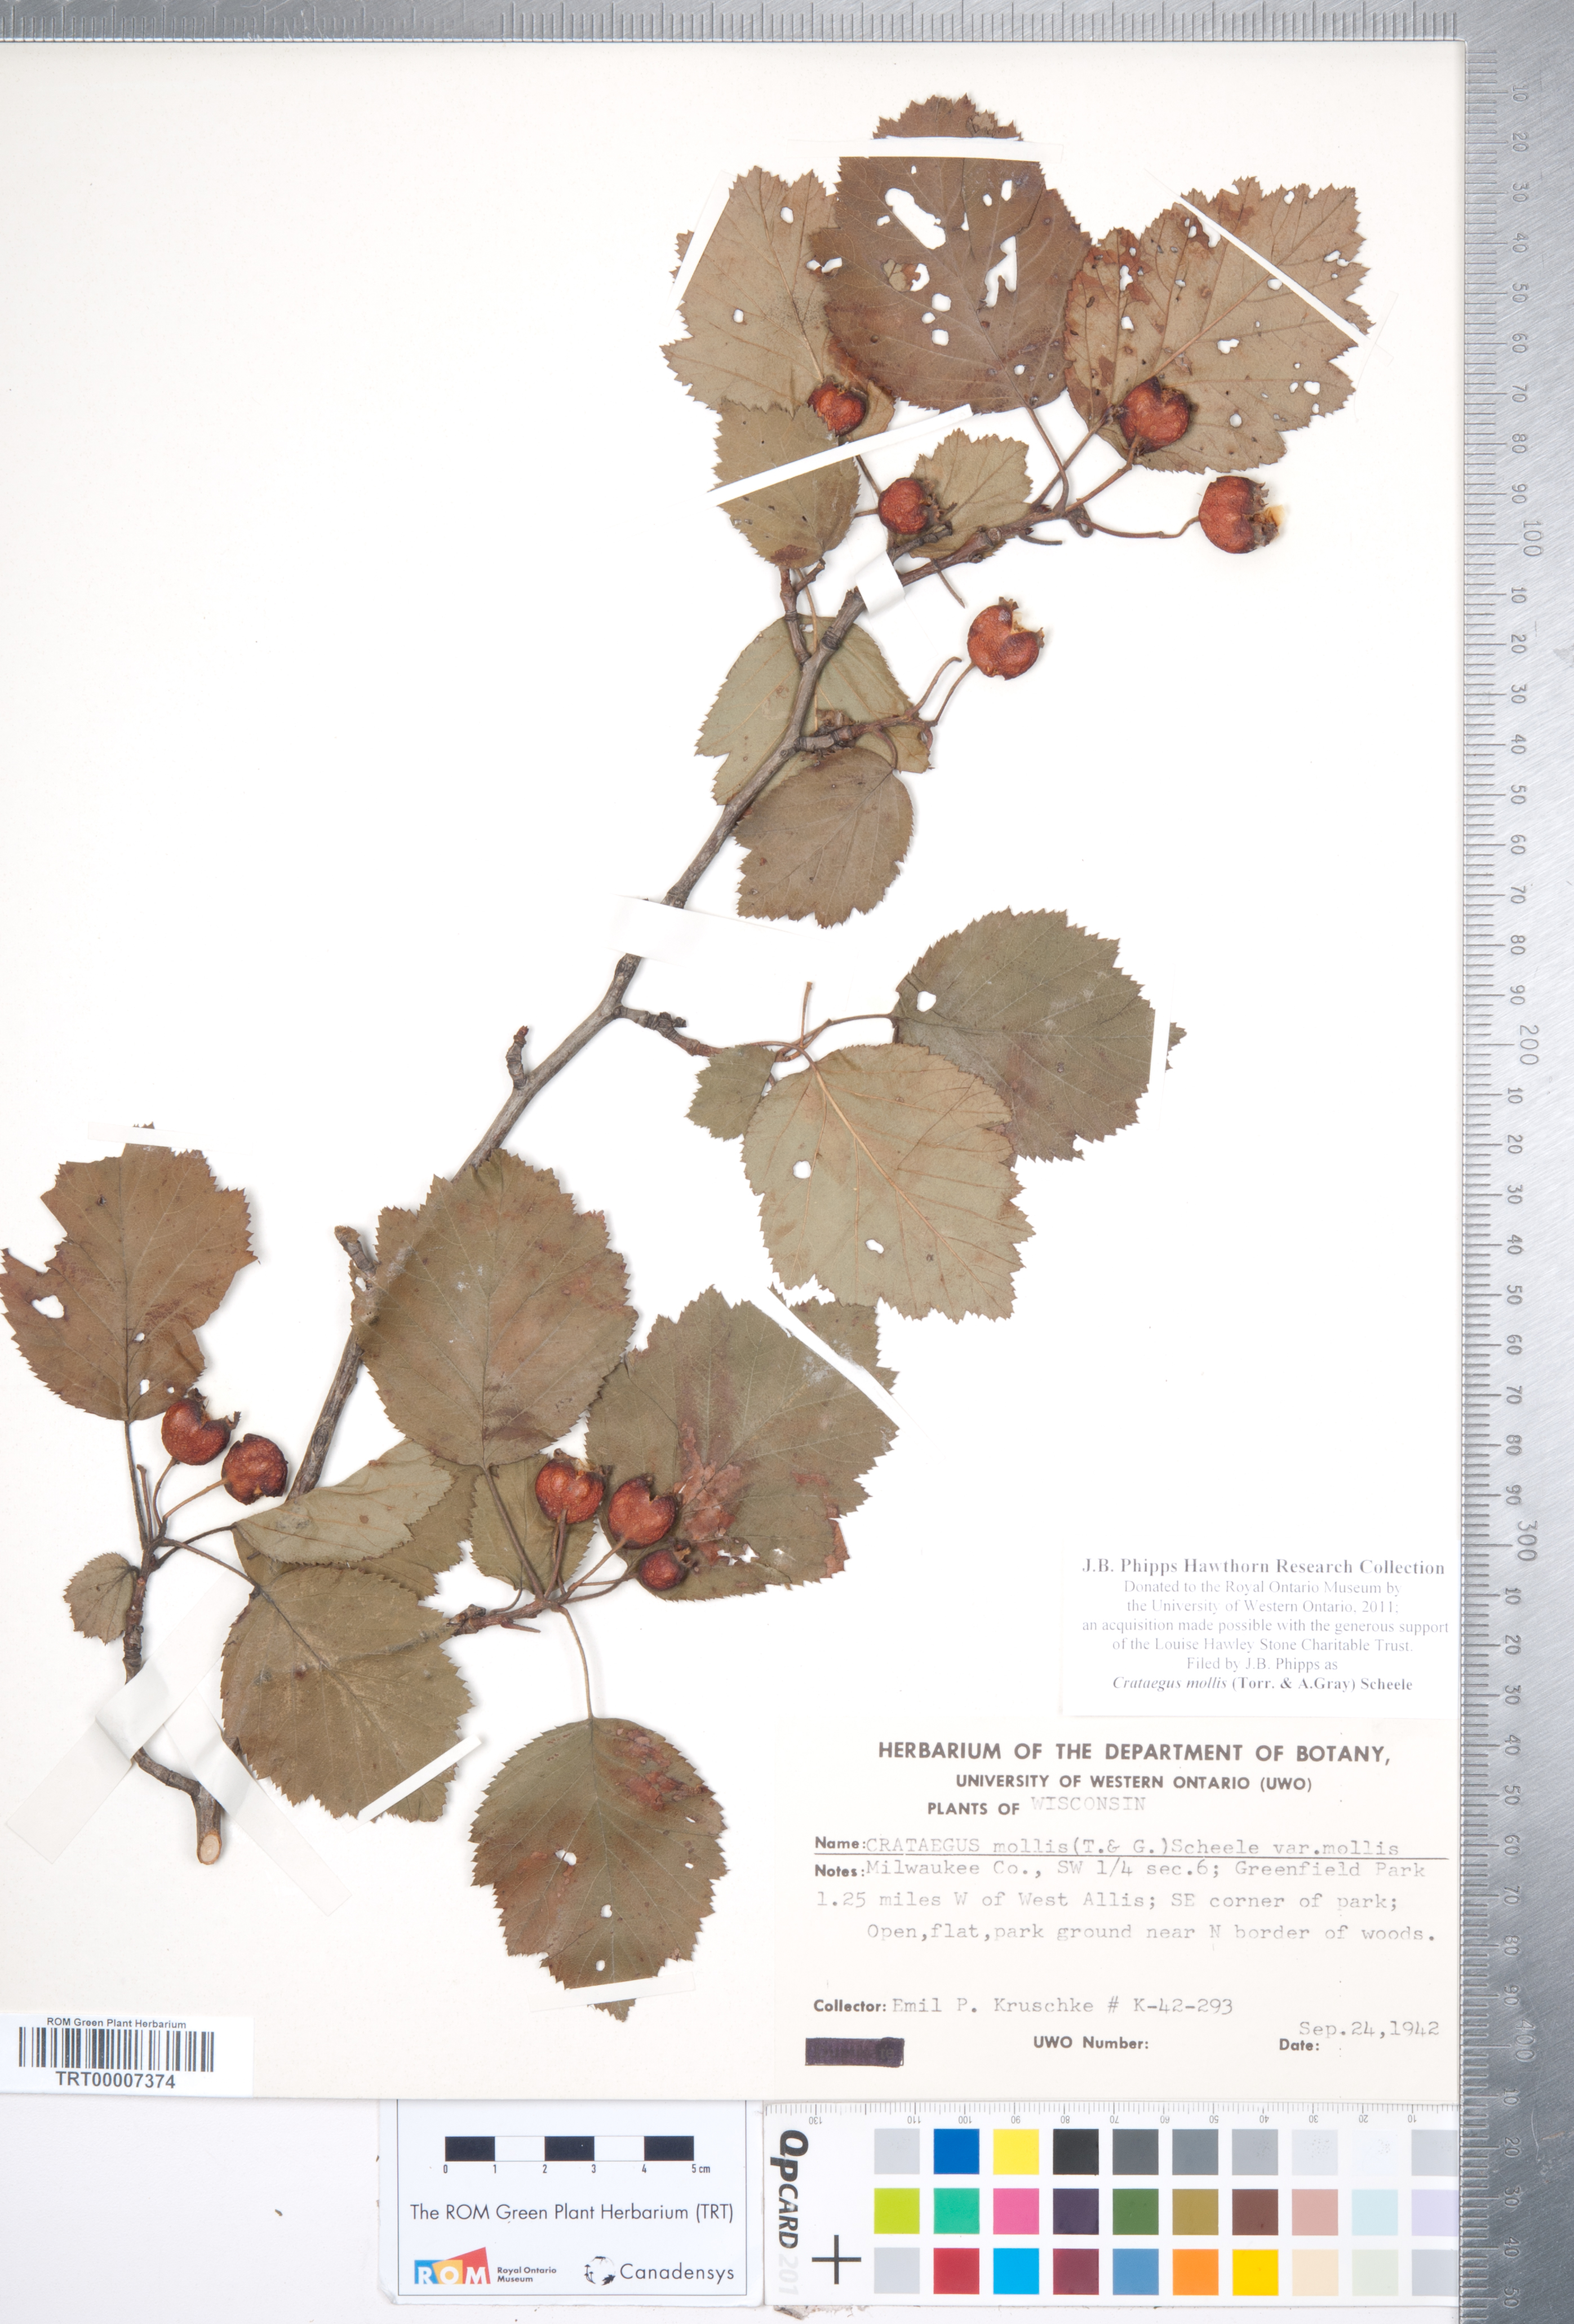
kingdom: Plantae
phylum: Tracheophyta
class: Magnoliopsida
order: Rosales
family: Rosaceae
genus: Crataegus
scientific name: Crataegus mollis
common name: Downy hawthorn
